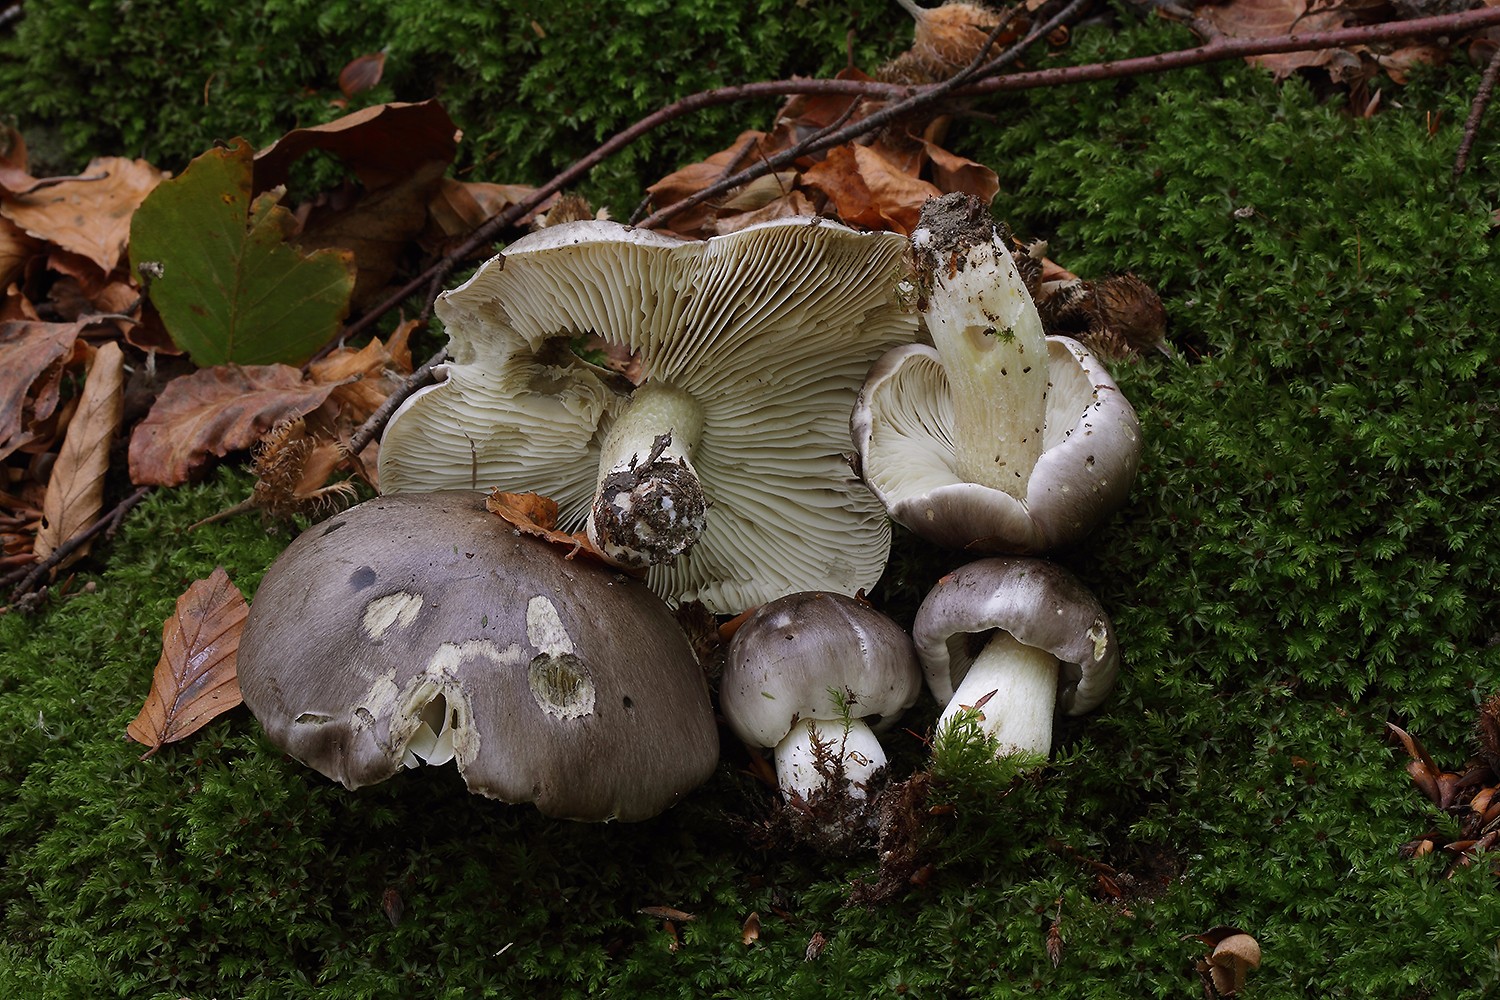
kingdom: Fungi
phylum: Basidiomycota
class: Agaricomycetes
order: Agaricales
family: Tricholomataceae
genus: Tricholoma
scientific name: Tricholoma portentosum
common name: grå ridderhat
